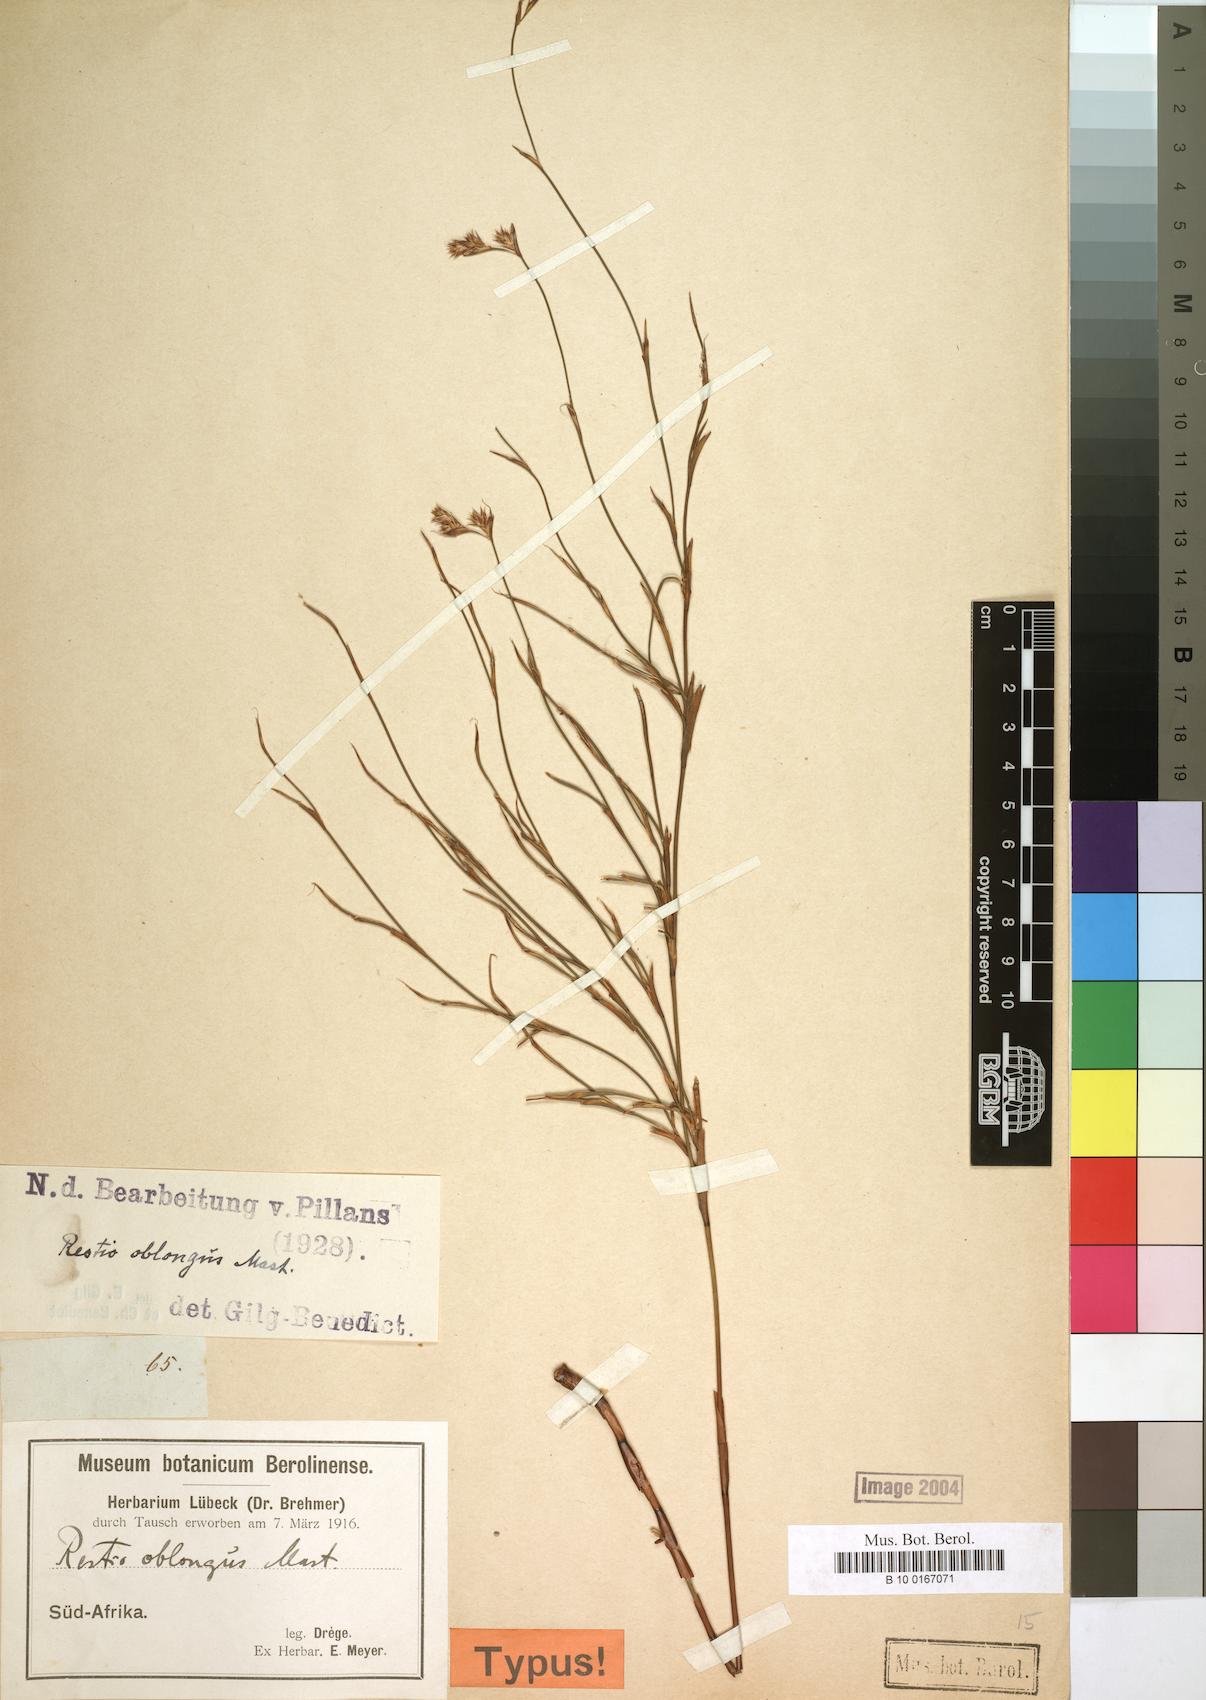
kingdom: Plantae
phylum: Tracheophyta
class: Liliopsida
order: Poales
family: Restionaceae
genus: Anthochortus
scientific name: Anthochortus crinalis
